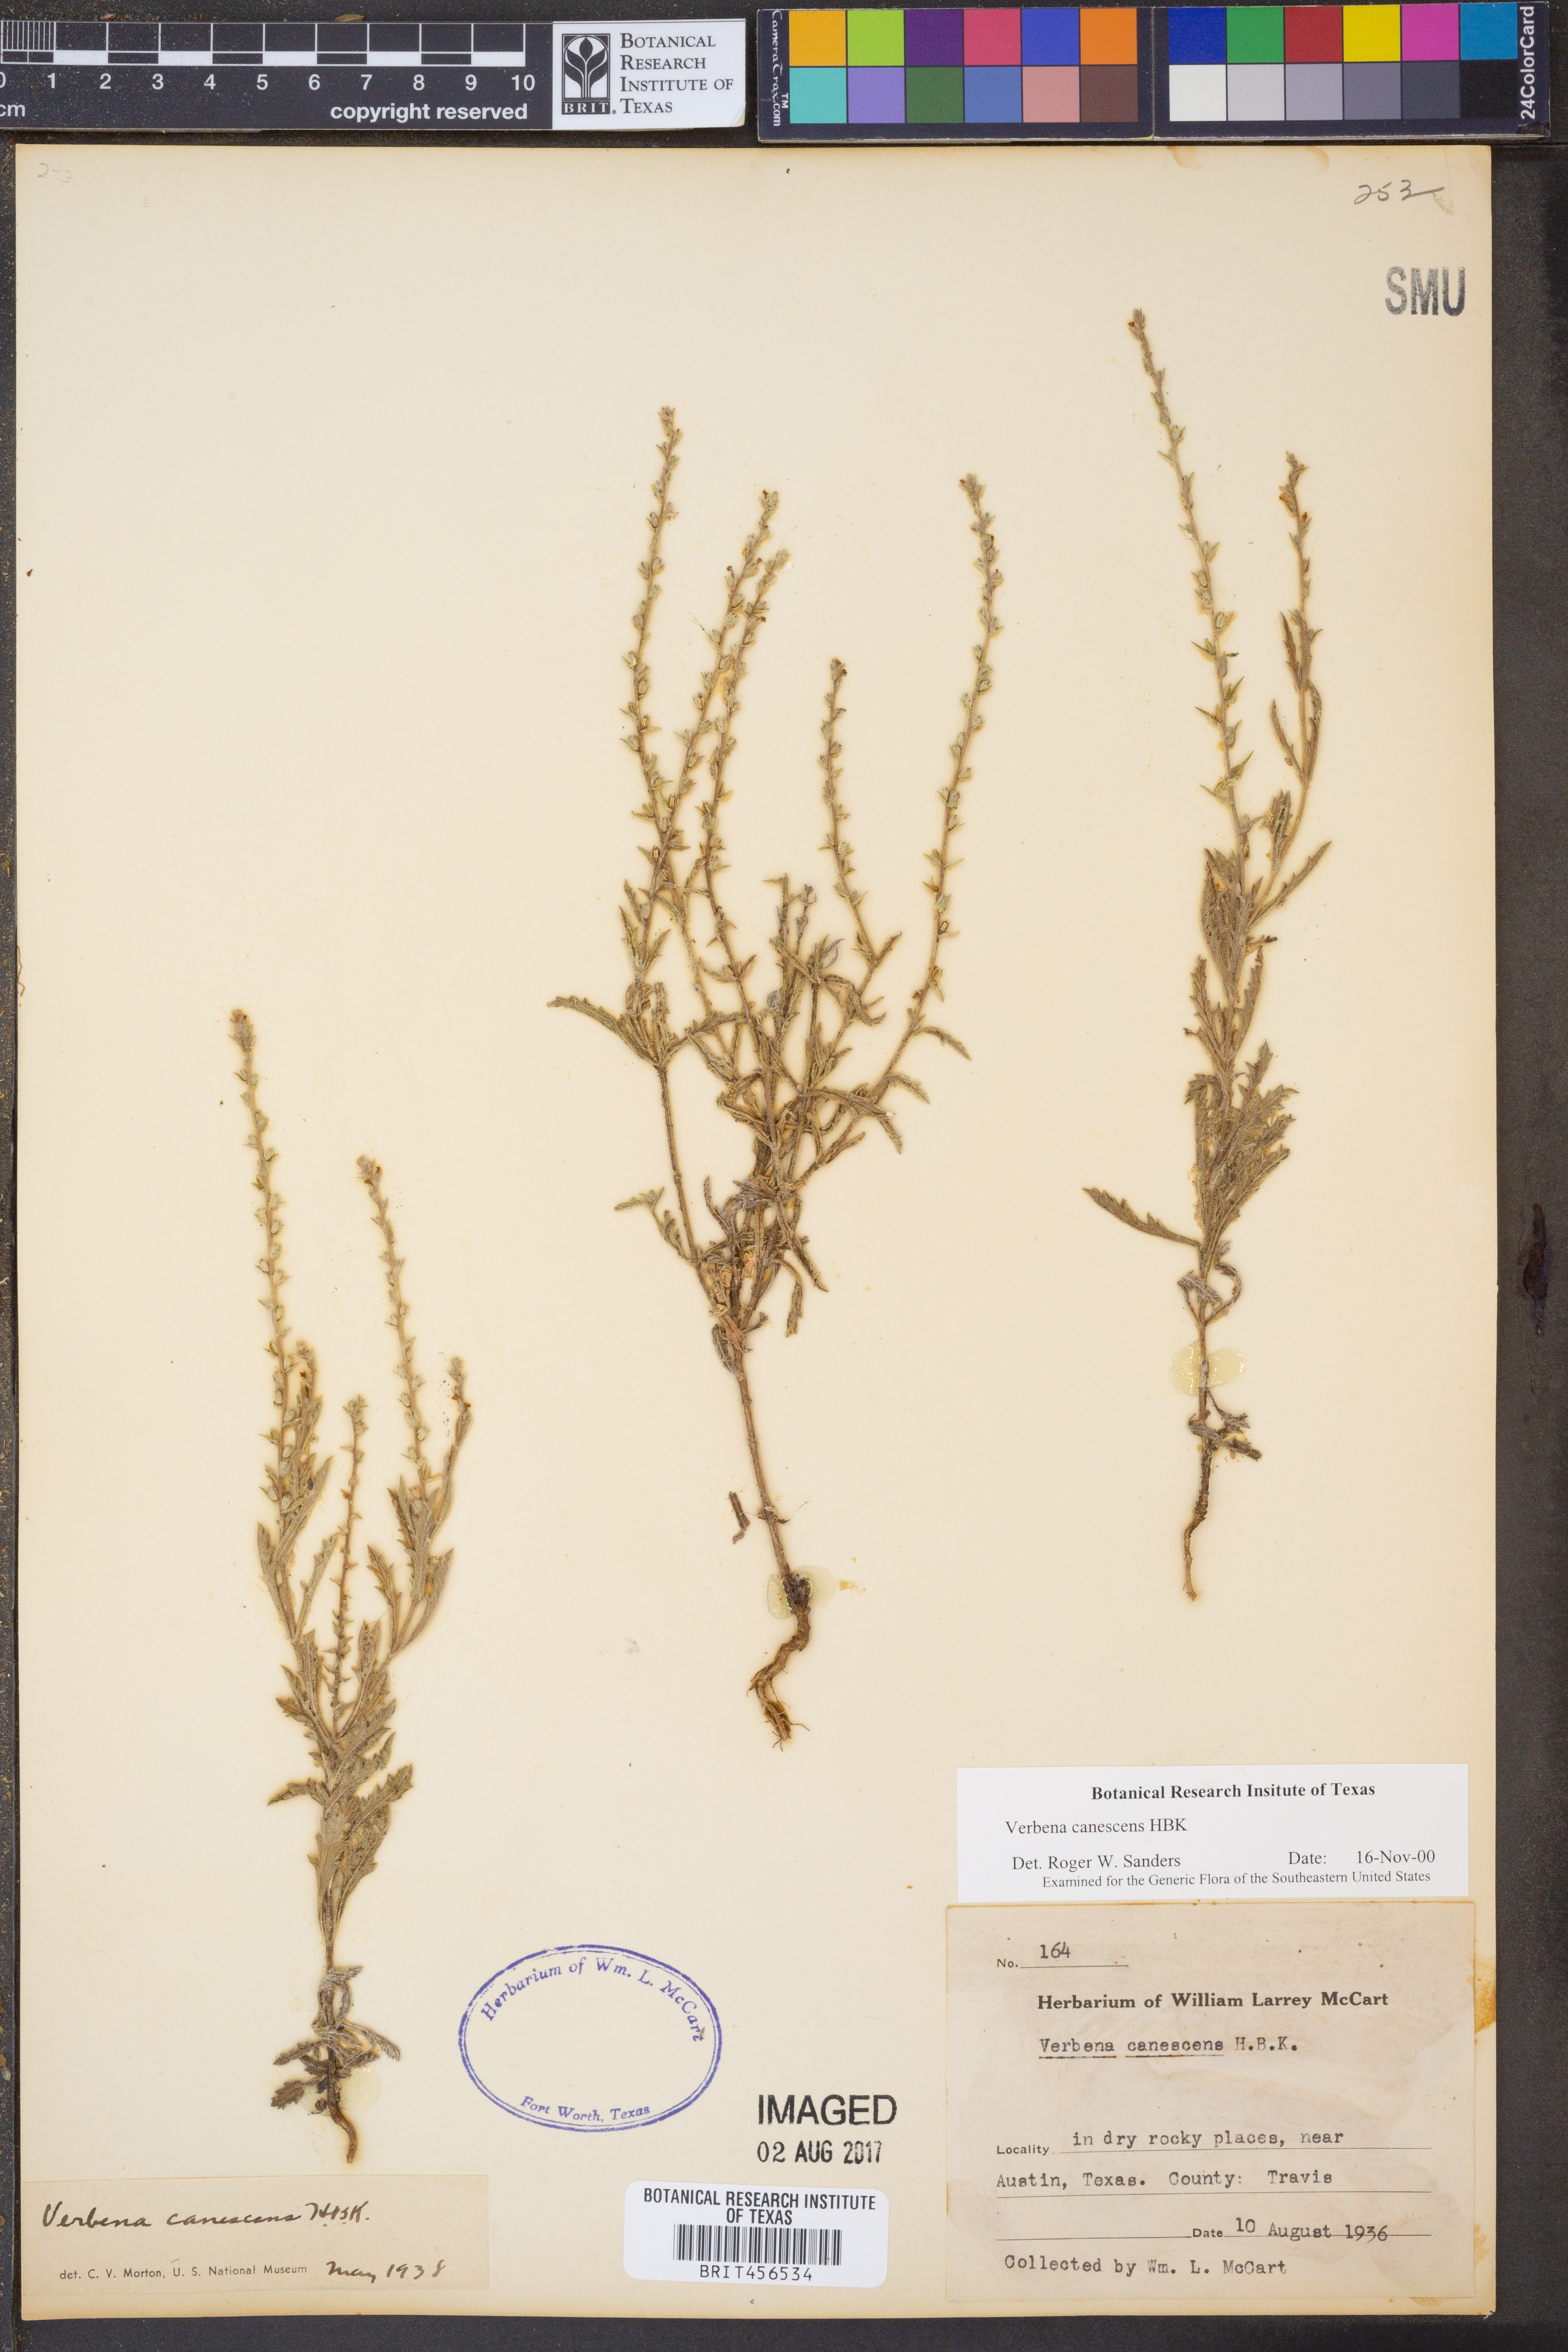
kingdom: Plantae
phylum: Tracheophyta
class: Magnoliopsida
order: Lamiales
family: Verbenaceae
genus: Verbena
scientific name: Verbena canescens
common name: Gray vervain
